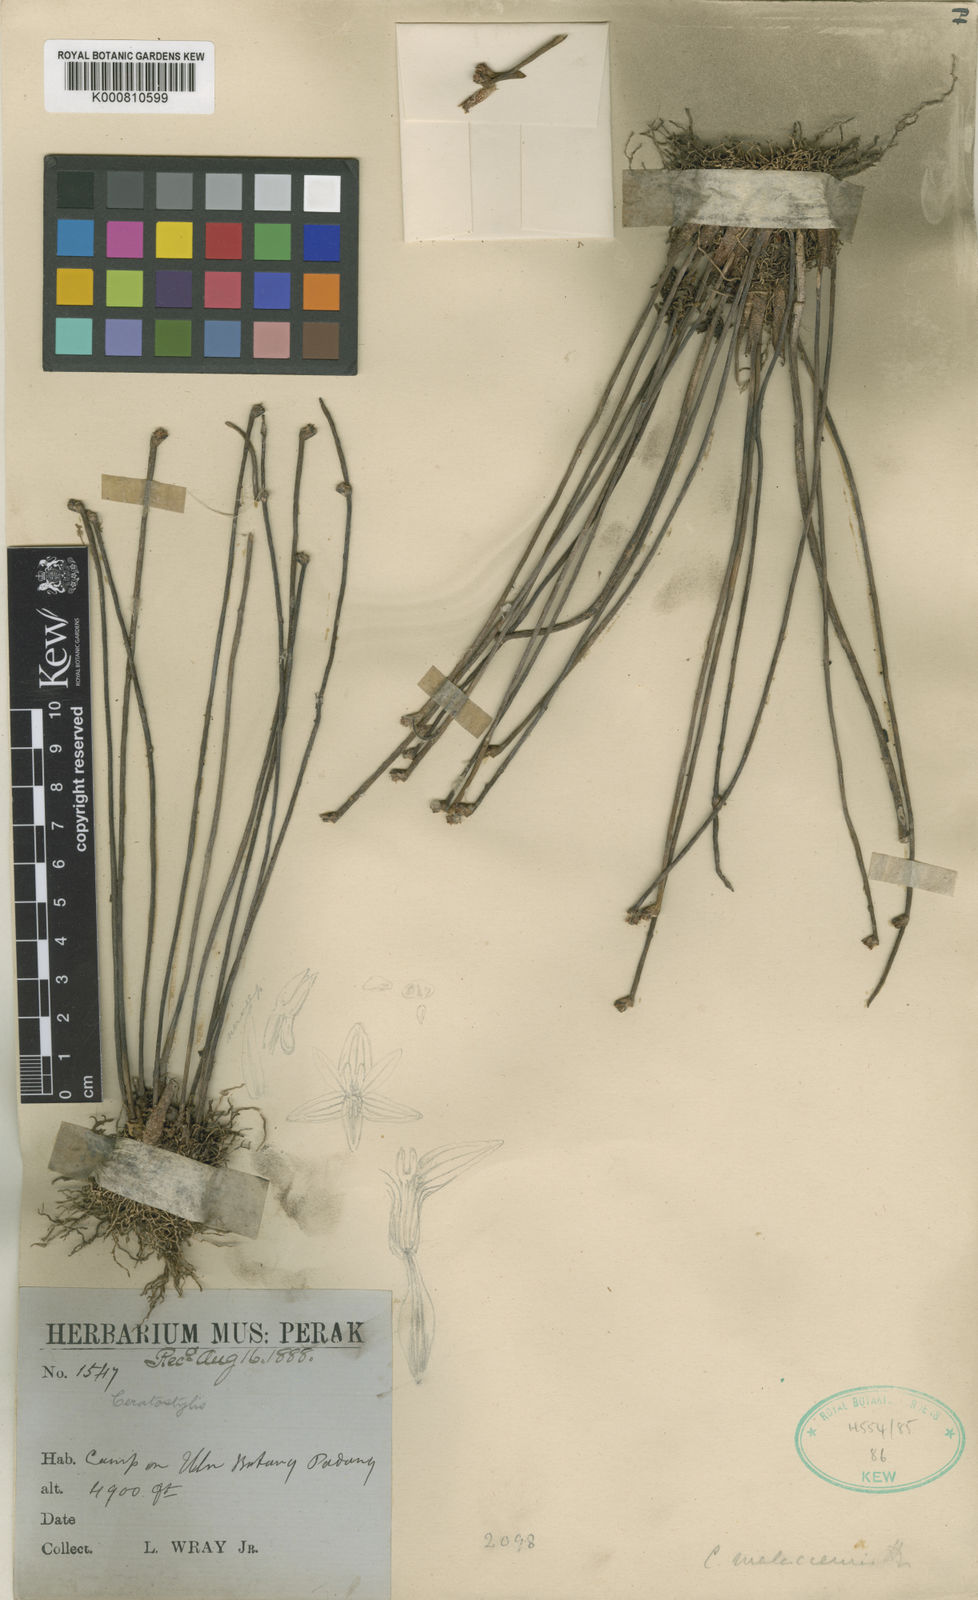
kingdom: Plantae
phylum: Tracheophyta
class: Liliopsida
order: Asparagales
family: Orchidaceae
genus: Ceratostylis
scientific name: Ceratostylis subulata
